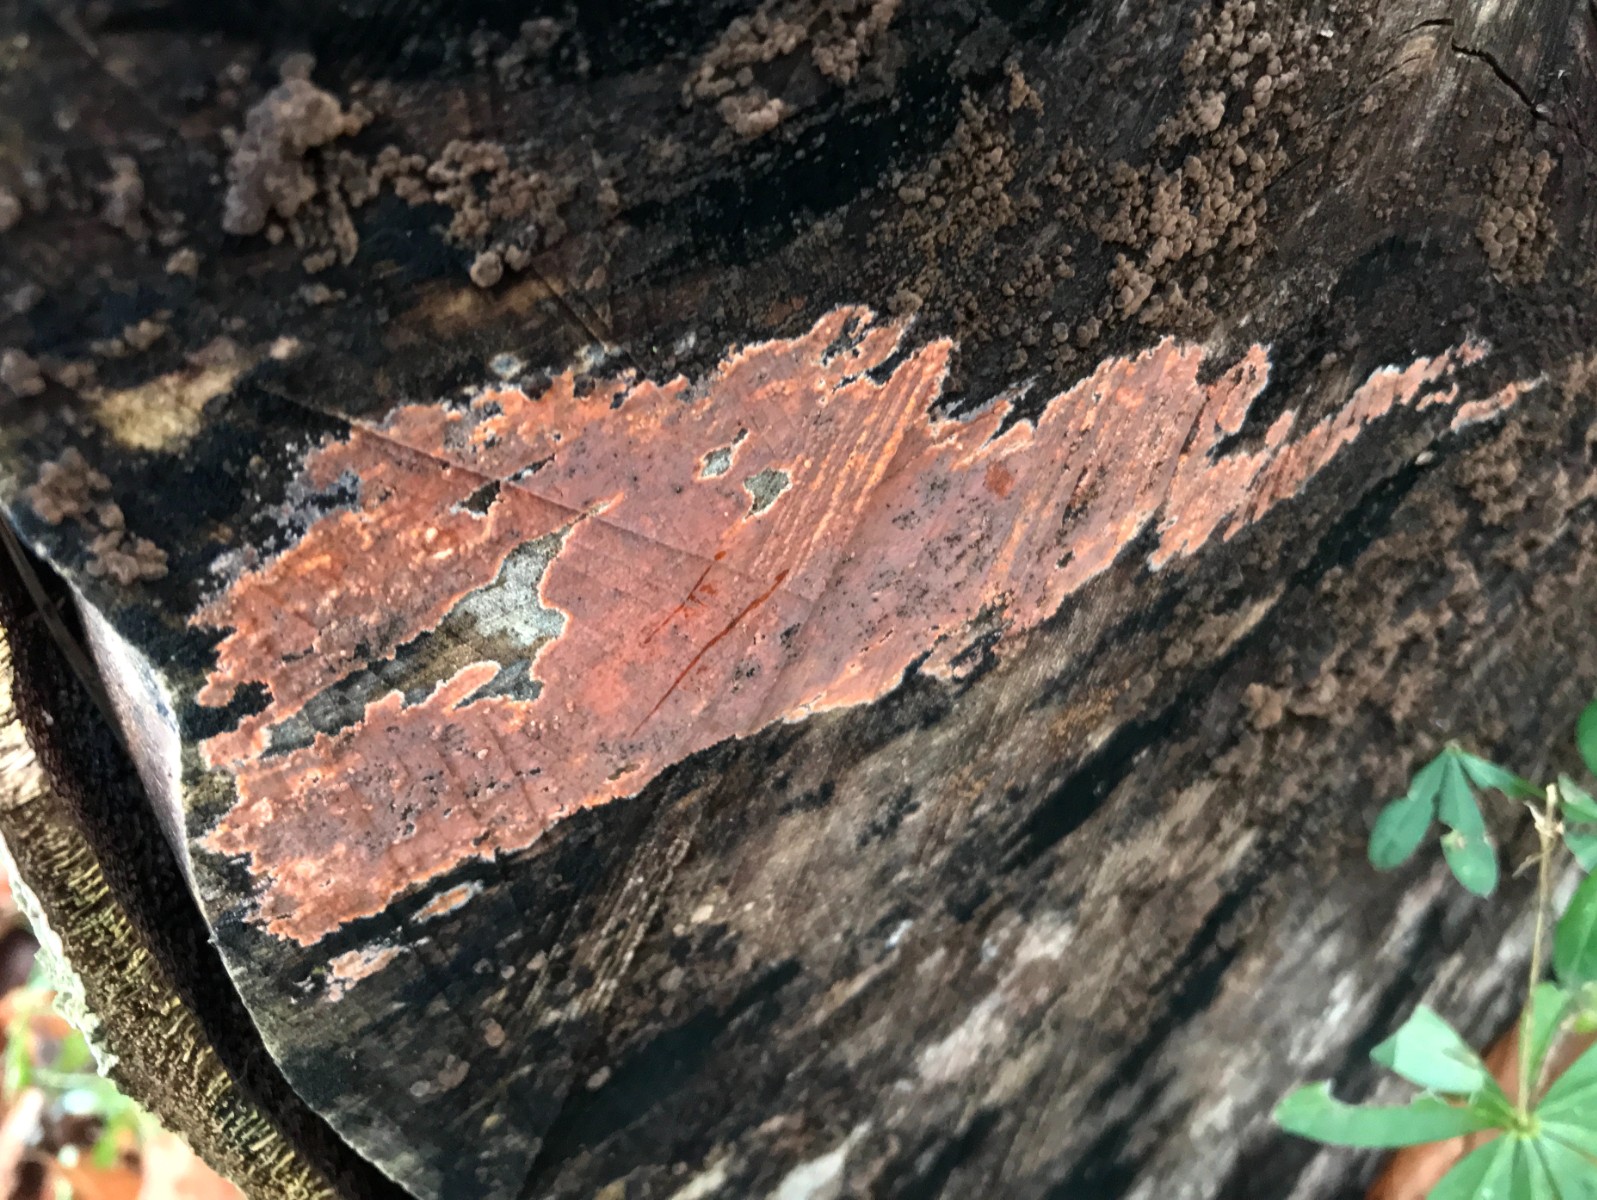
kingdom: Fungi
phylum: Basidiomycota
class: Agaricomycetes
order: Russulales
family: Peniophoraceae
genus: Peniophora
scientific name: Peniophora incarnata
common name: laksefarvet voksskind
